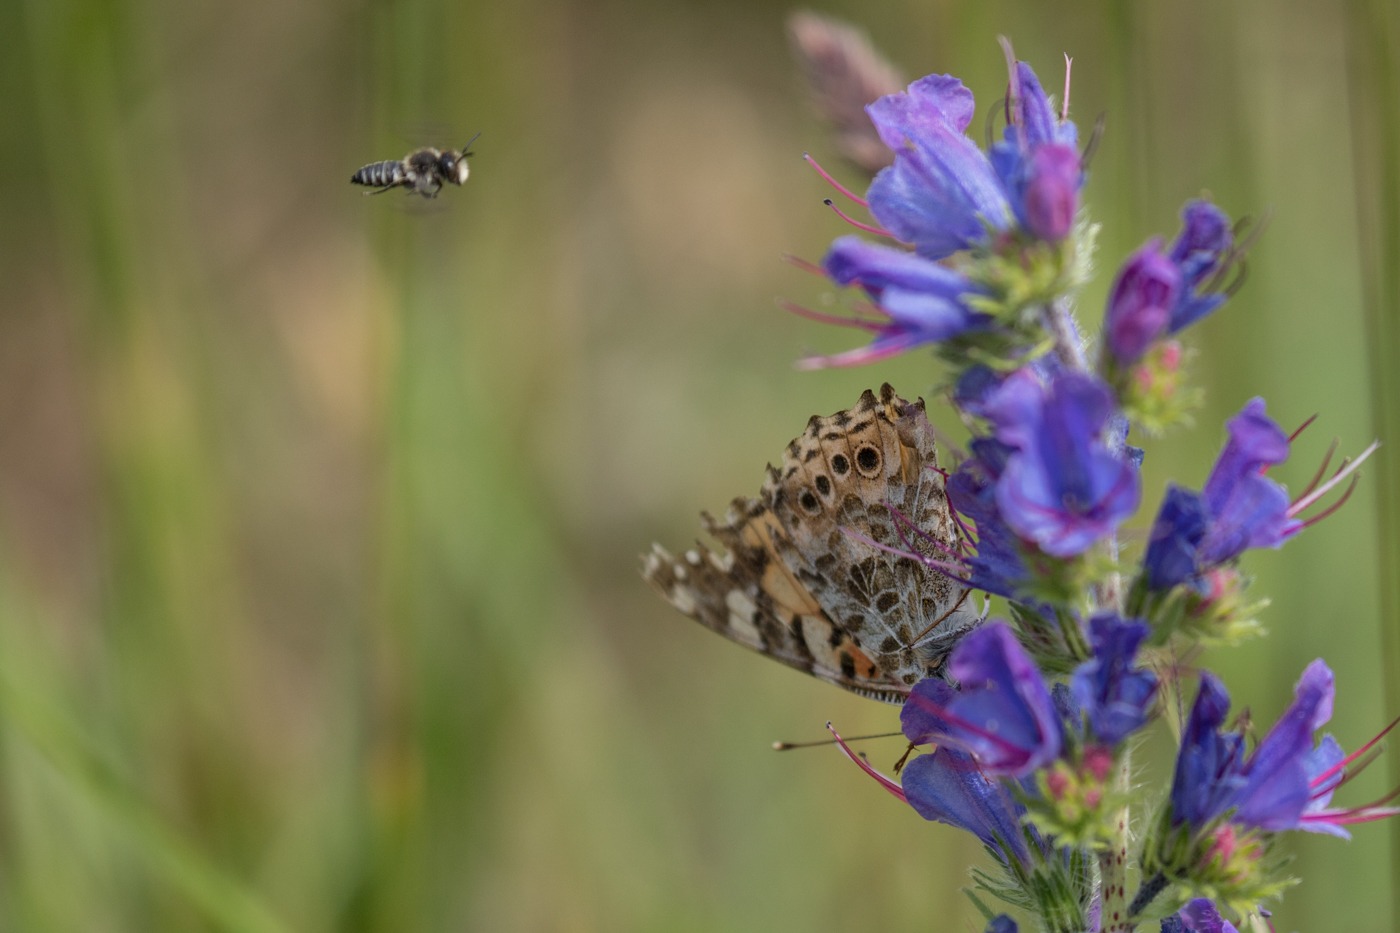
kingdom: Animalia
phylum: Arthropoda
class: Insecta
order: Lepidoptera
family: Nymphalidae
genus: Vanessa
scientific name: Vanessa cardui
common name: Tidselsommerfugl
